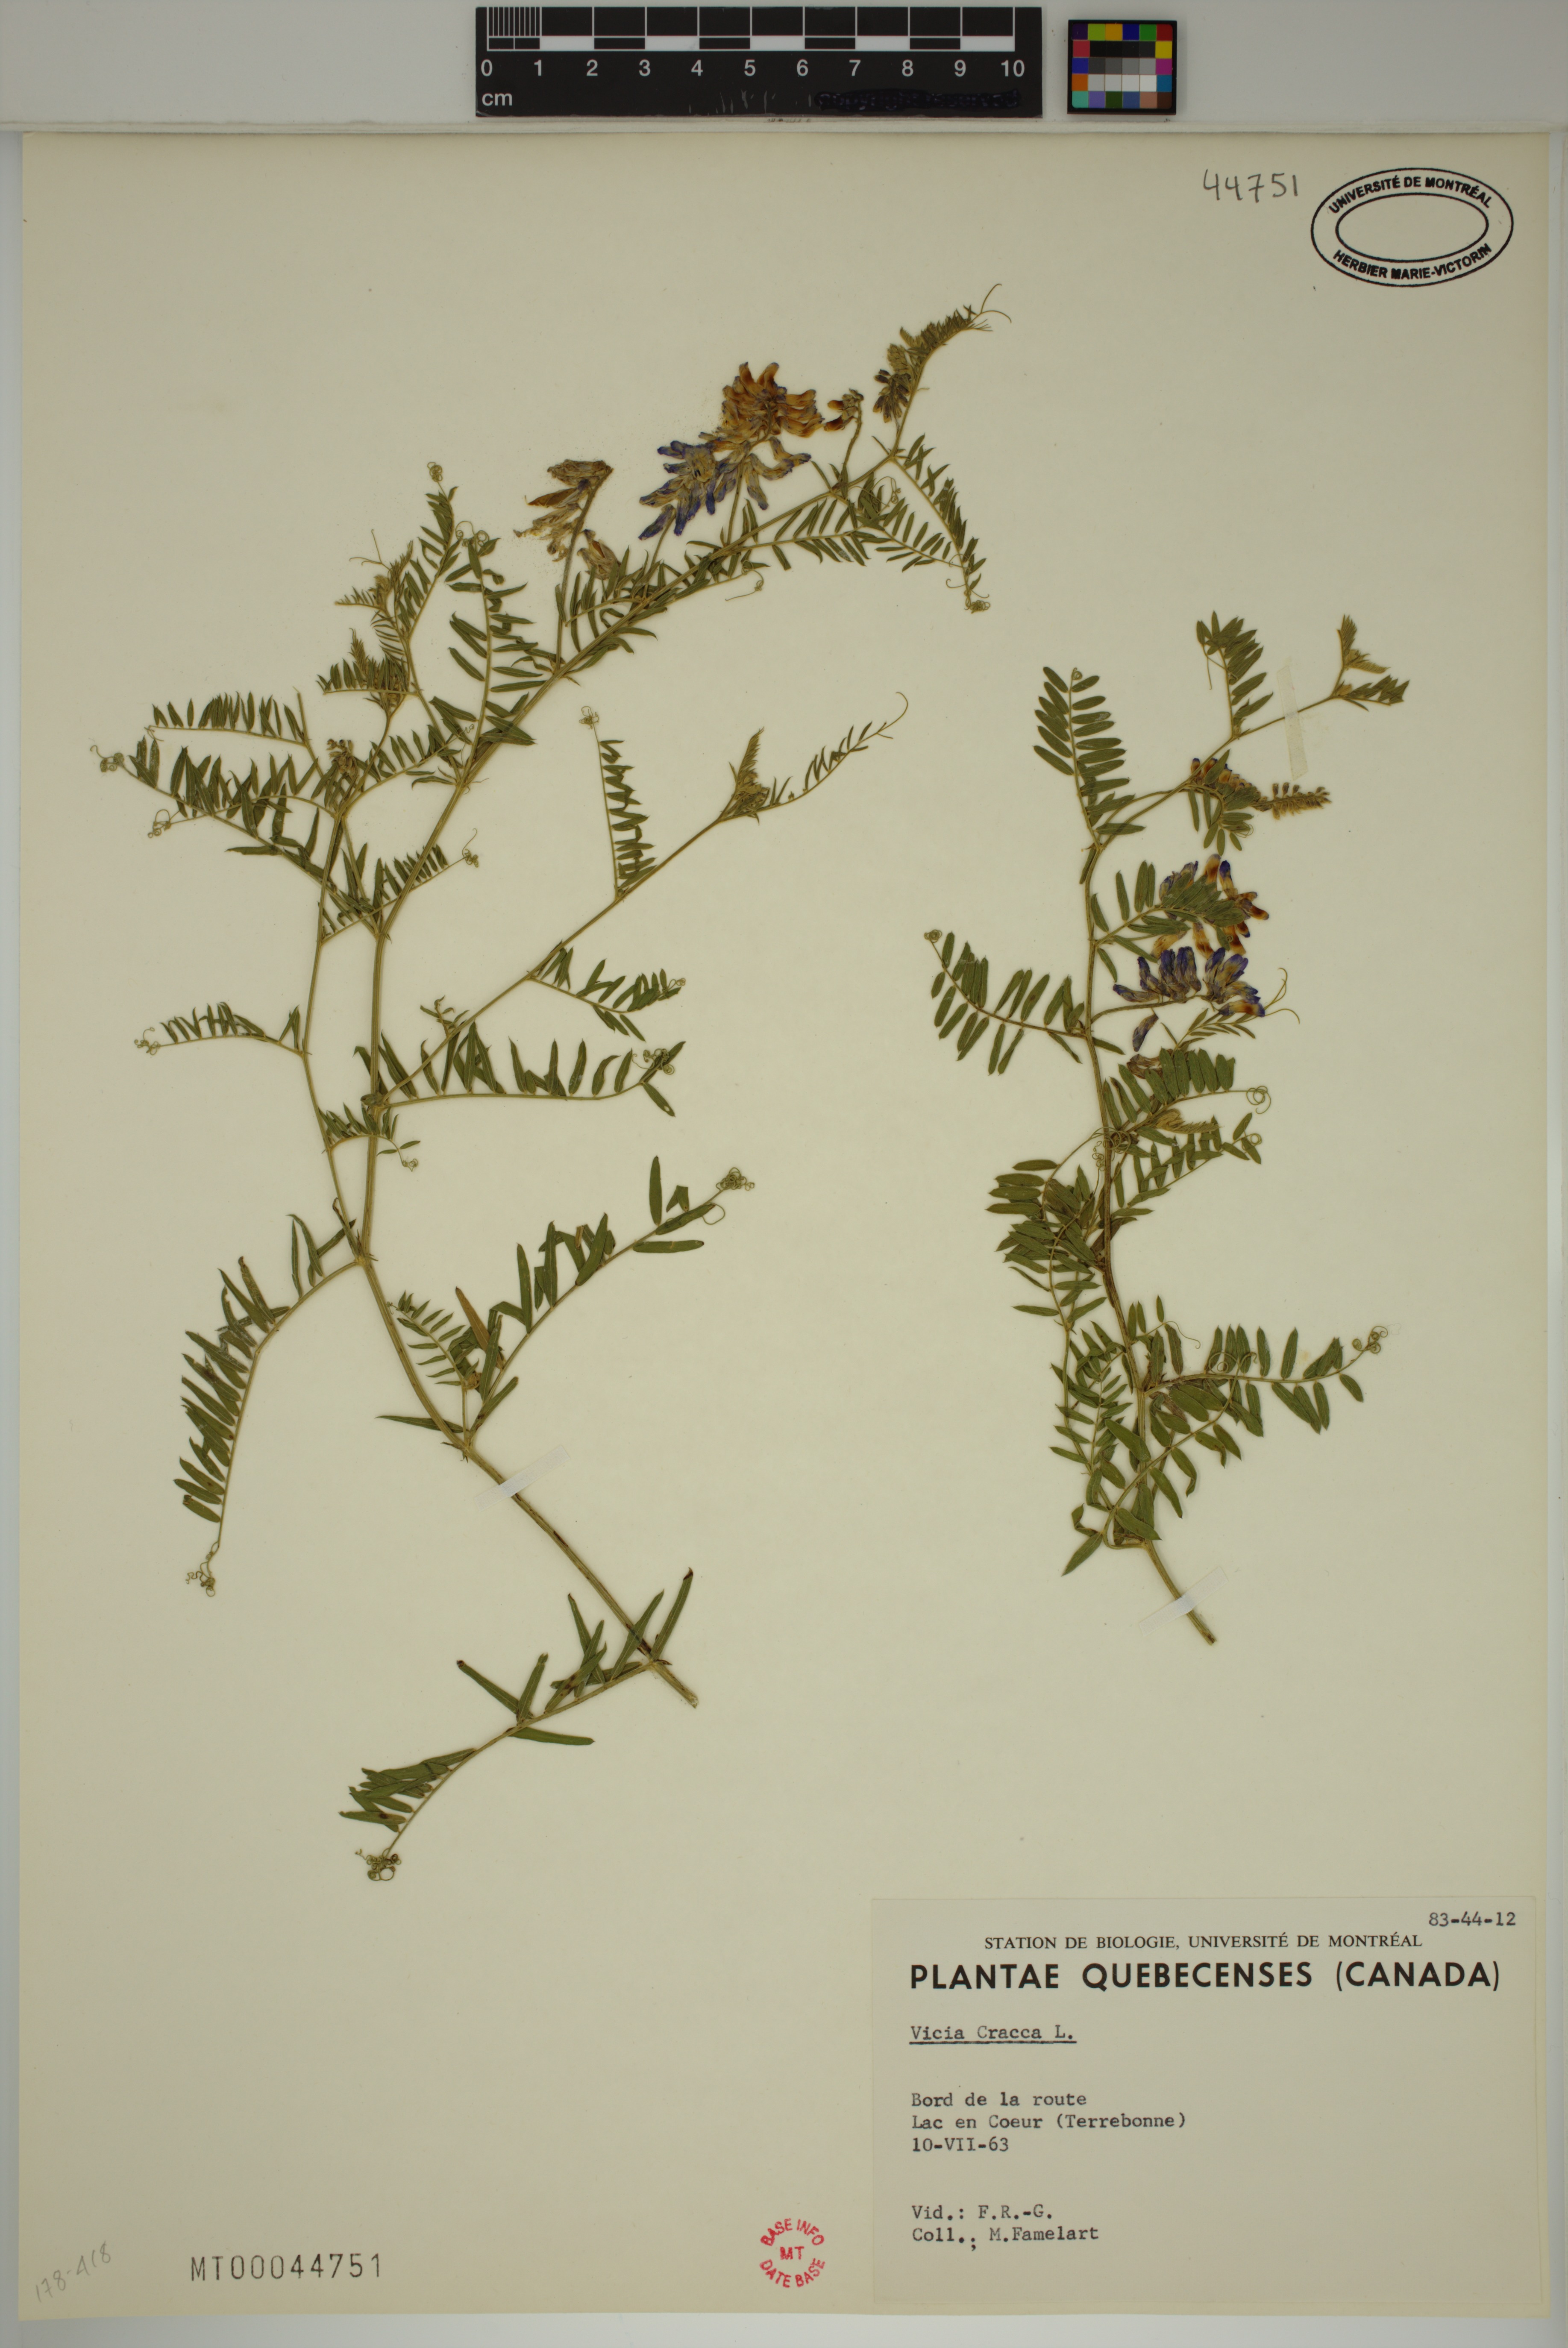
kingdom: Plantae
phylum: Tracheophyta
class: Magnoliopsida
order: Fabales
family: Fabaceae
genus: Vicia
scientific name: Vicia cracca
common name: Bird vetch
